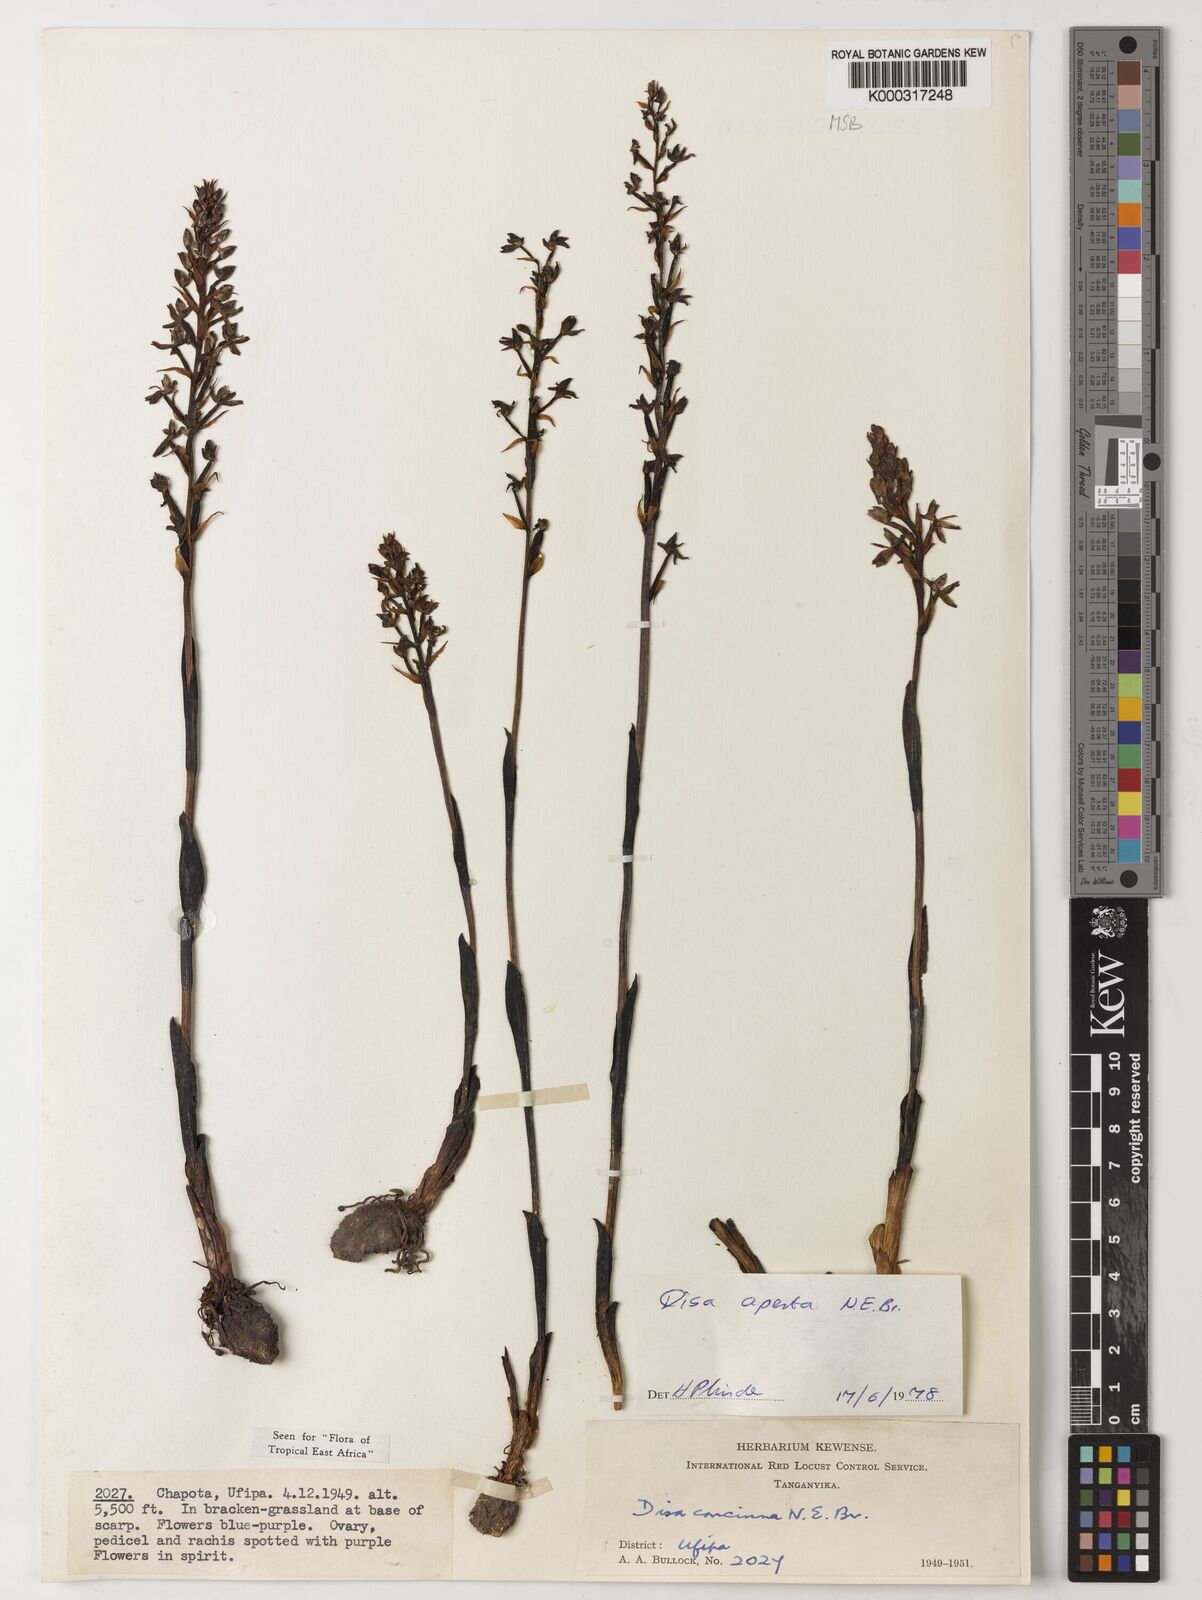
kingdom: Plantae
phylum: Tracheophyta
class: Liliopsida
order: Asparagales
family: Orchidaceae
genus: Disa
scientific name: Disa aperta
